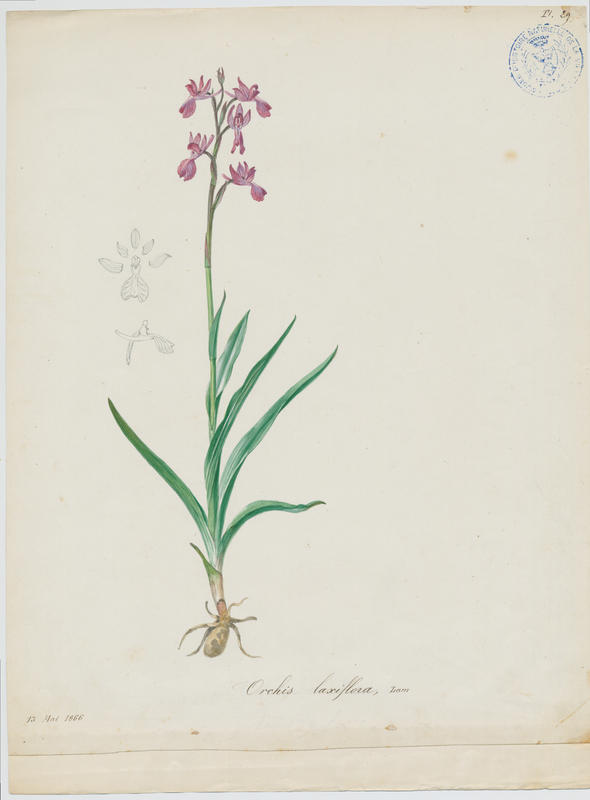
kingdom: Plantae
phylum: Tracheophyta
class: Liliopsida
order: Asparagales
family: Orchidaceae
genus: Anacamptis
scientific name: Anacamptis laxiflora
